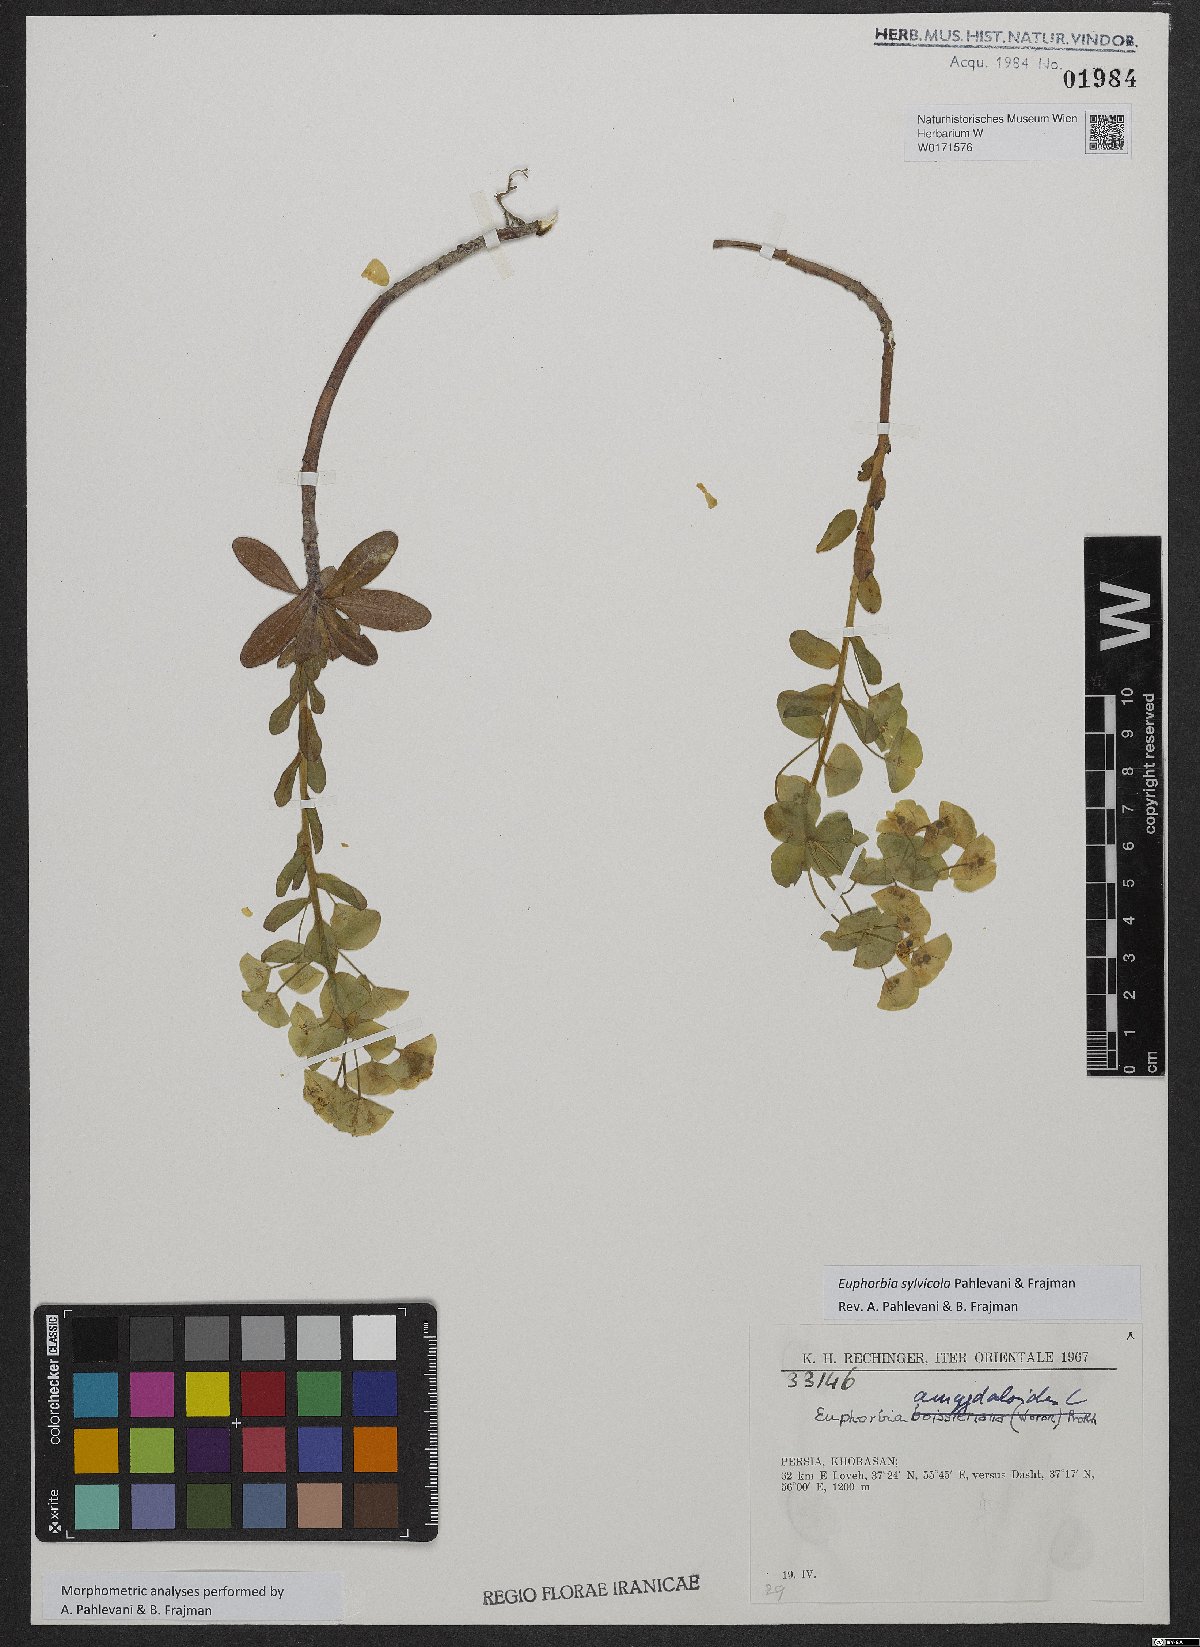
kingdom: Plantae
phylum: Tracheophyta
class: Magnoliopsida
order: Malpighiales
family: Euphorbiaceae
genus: Euphorbia
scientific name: Euphorbia juttae
